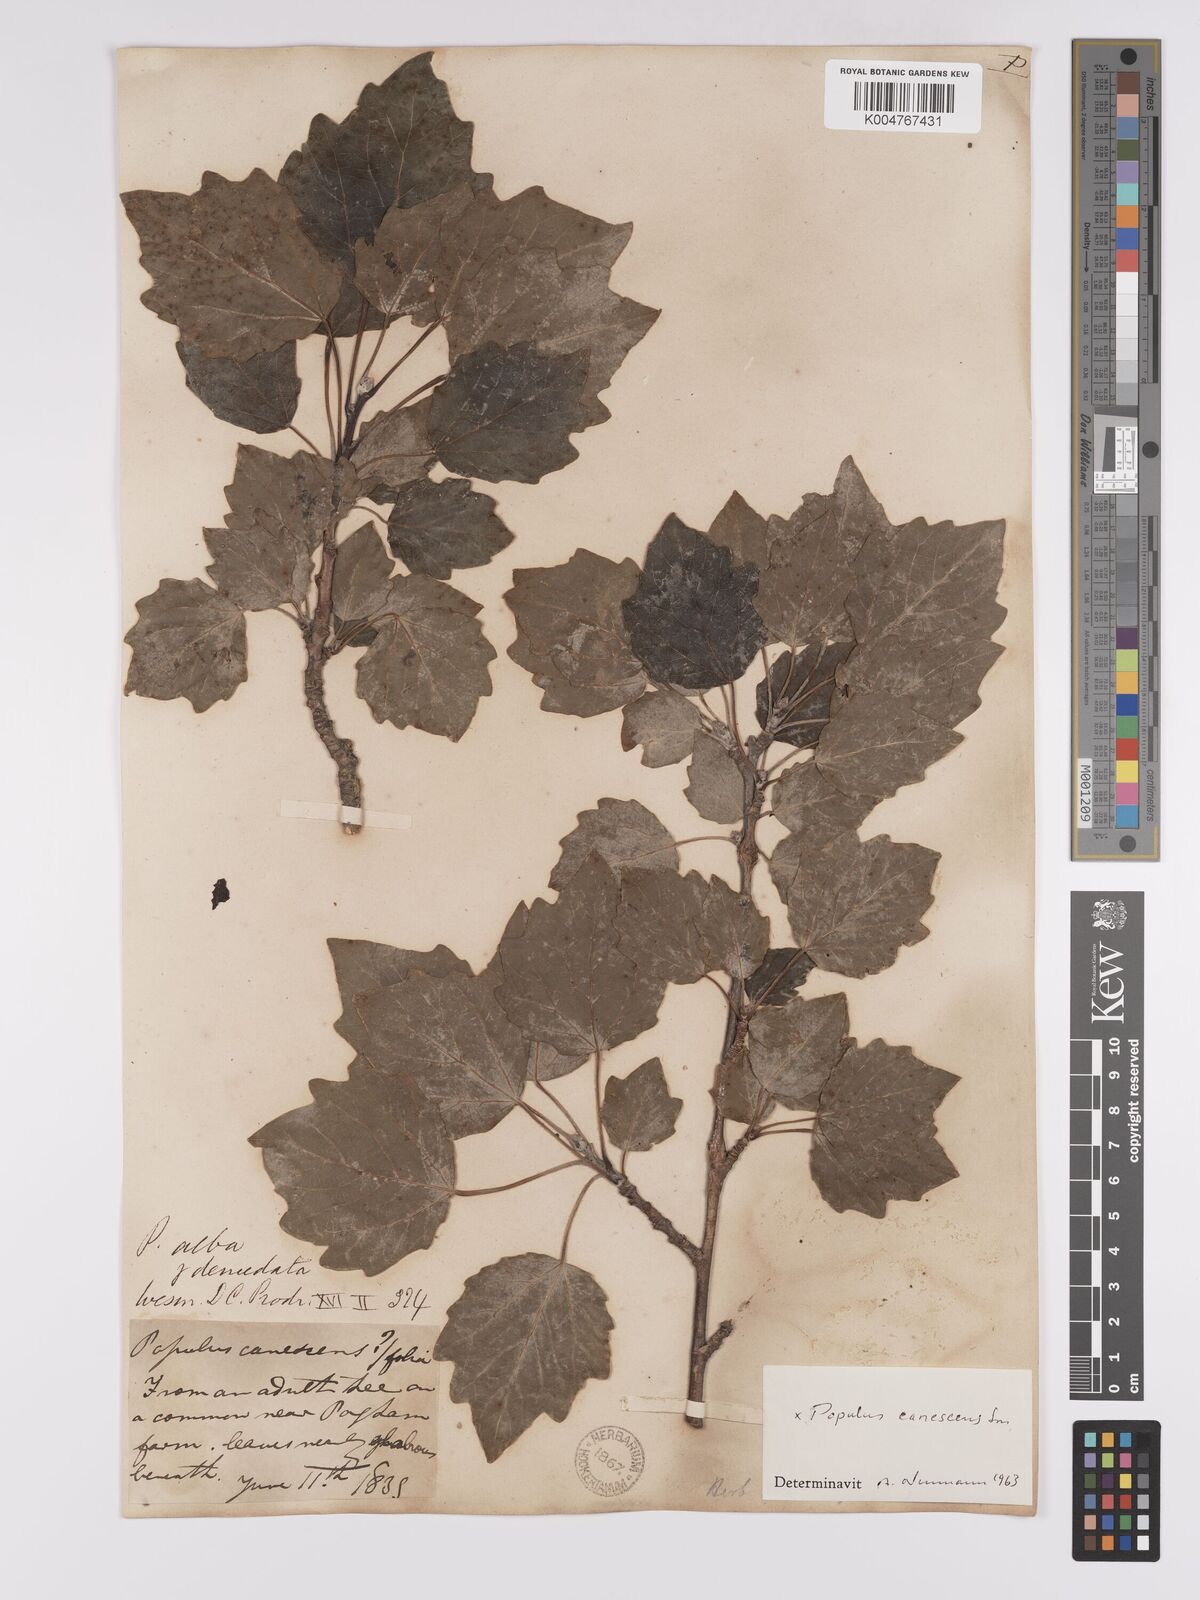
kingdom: Plantae
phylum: Tracheophyta
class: Magnoliopsida
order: Malpighiales
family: Salicaceae
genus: Populus
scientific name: Populus canescens
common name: Gray poplar
